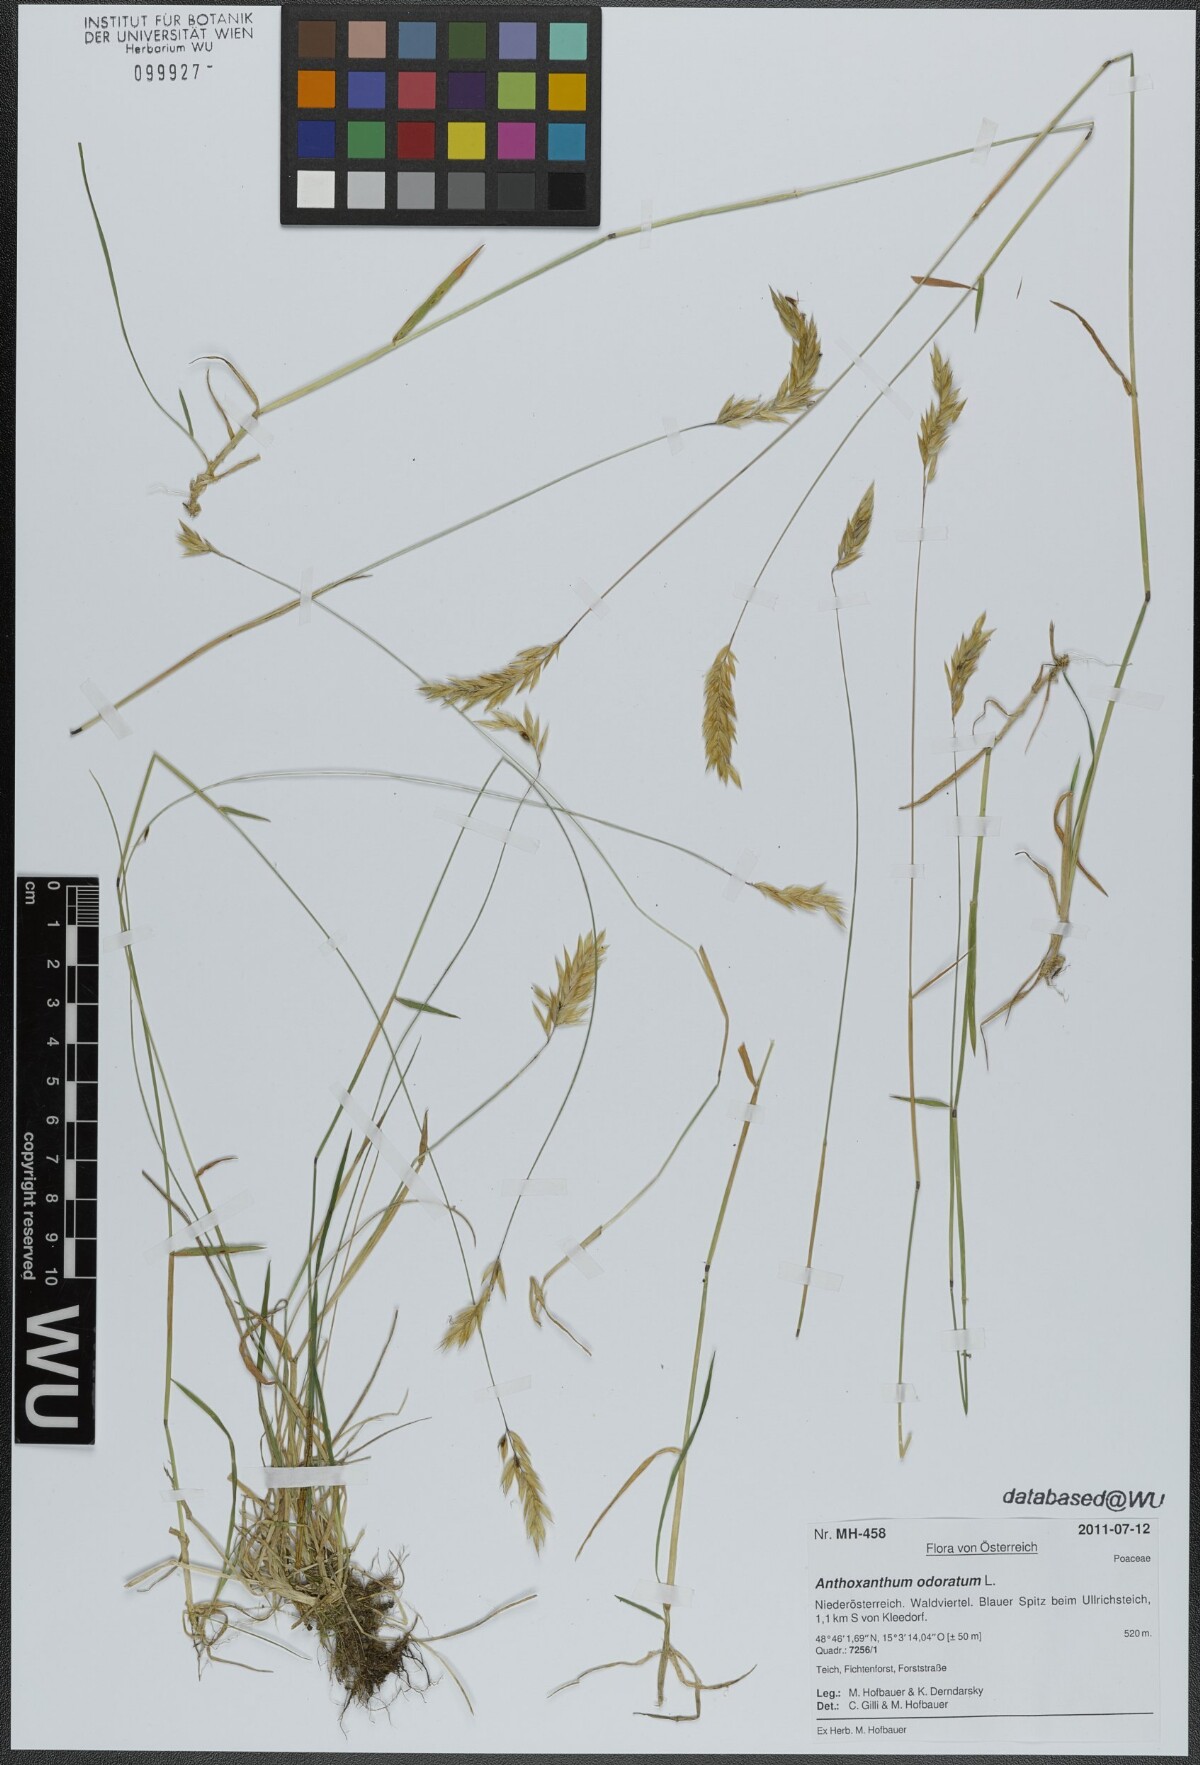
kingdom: Plantae
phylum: Tracheophyta
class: Liliopsida
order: Poales
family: Poaceae
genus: Anthoxanthum
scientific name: Anthoxanthum odoratum
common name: Sweet vernalgrass
